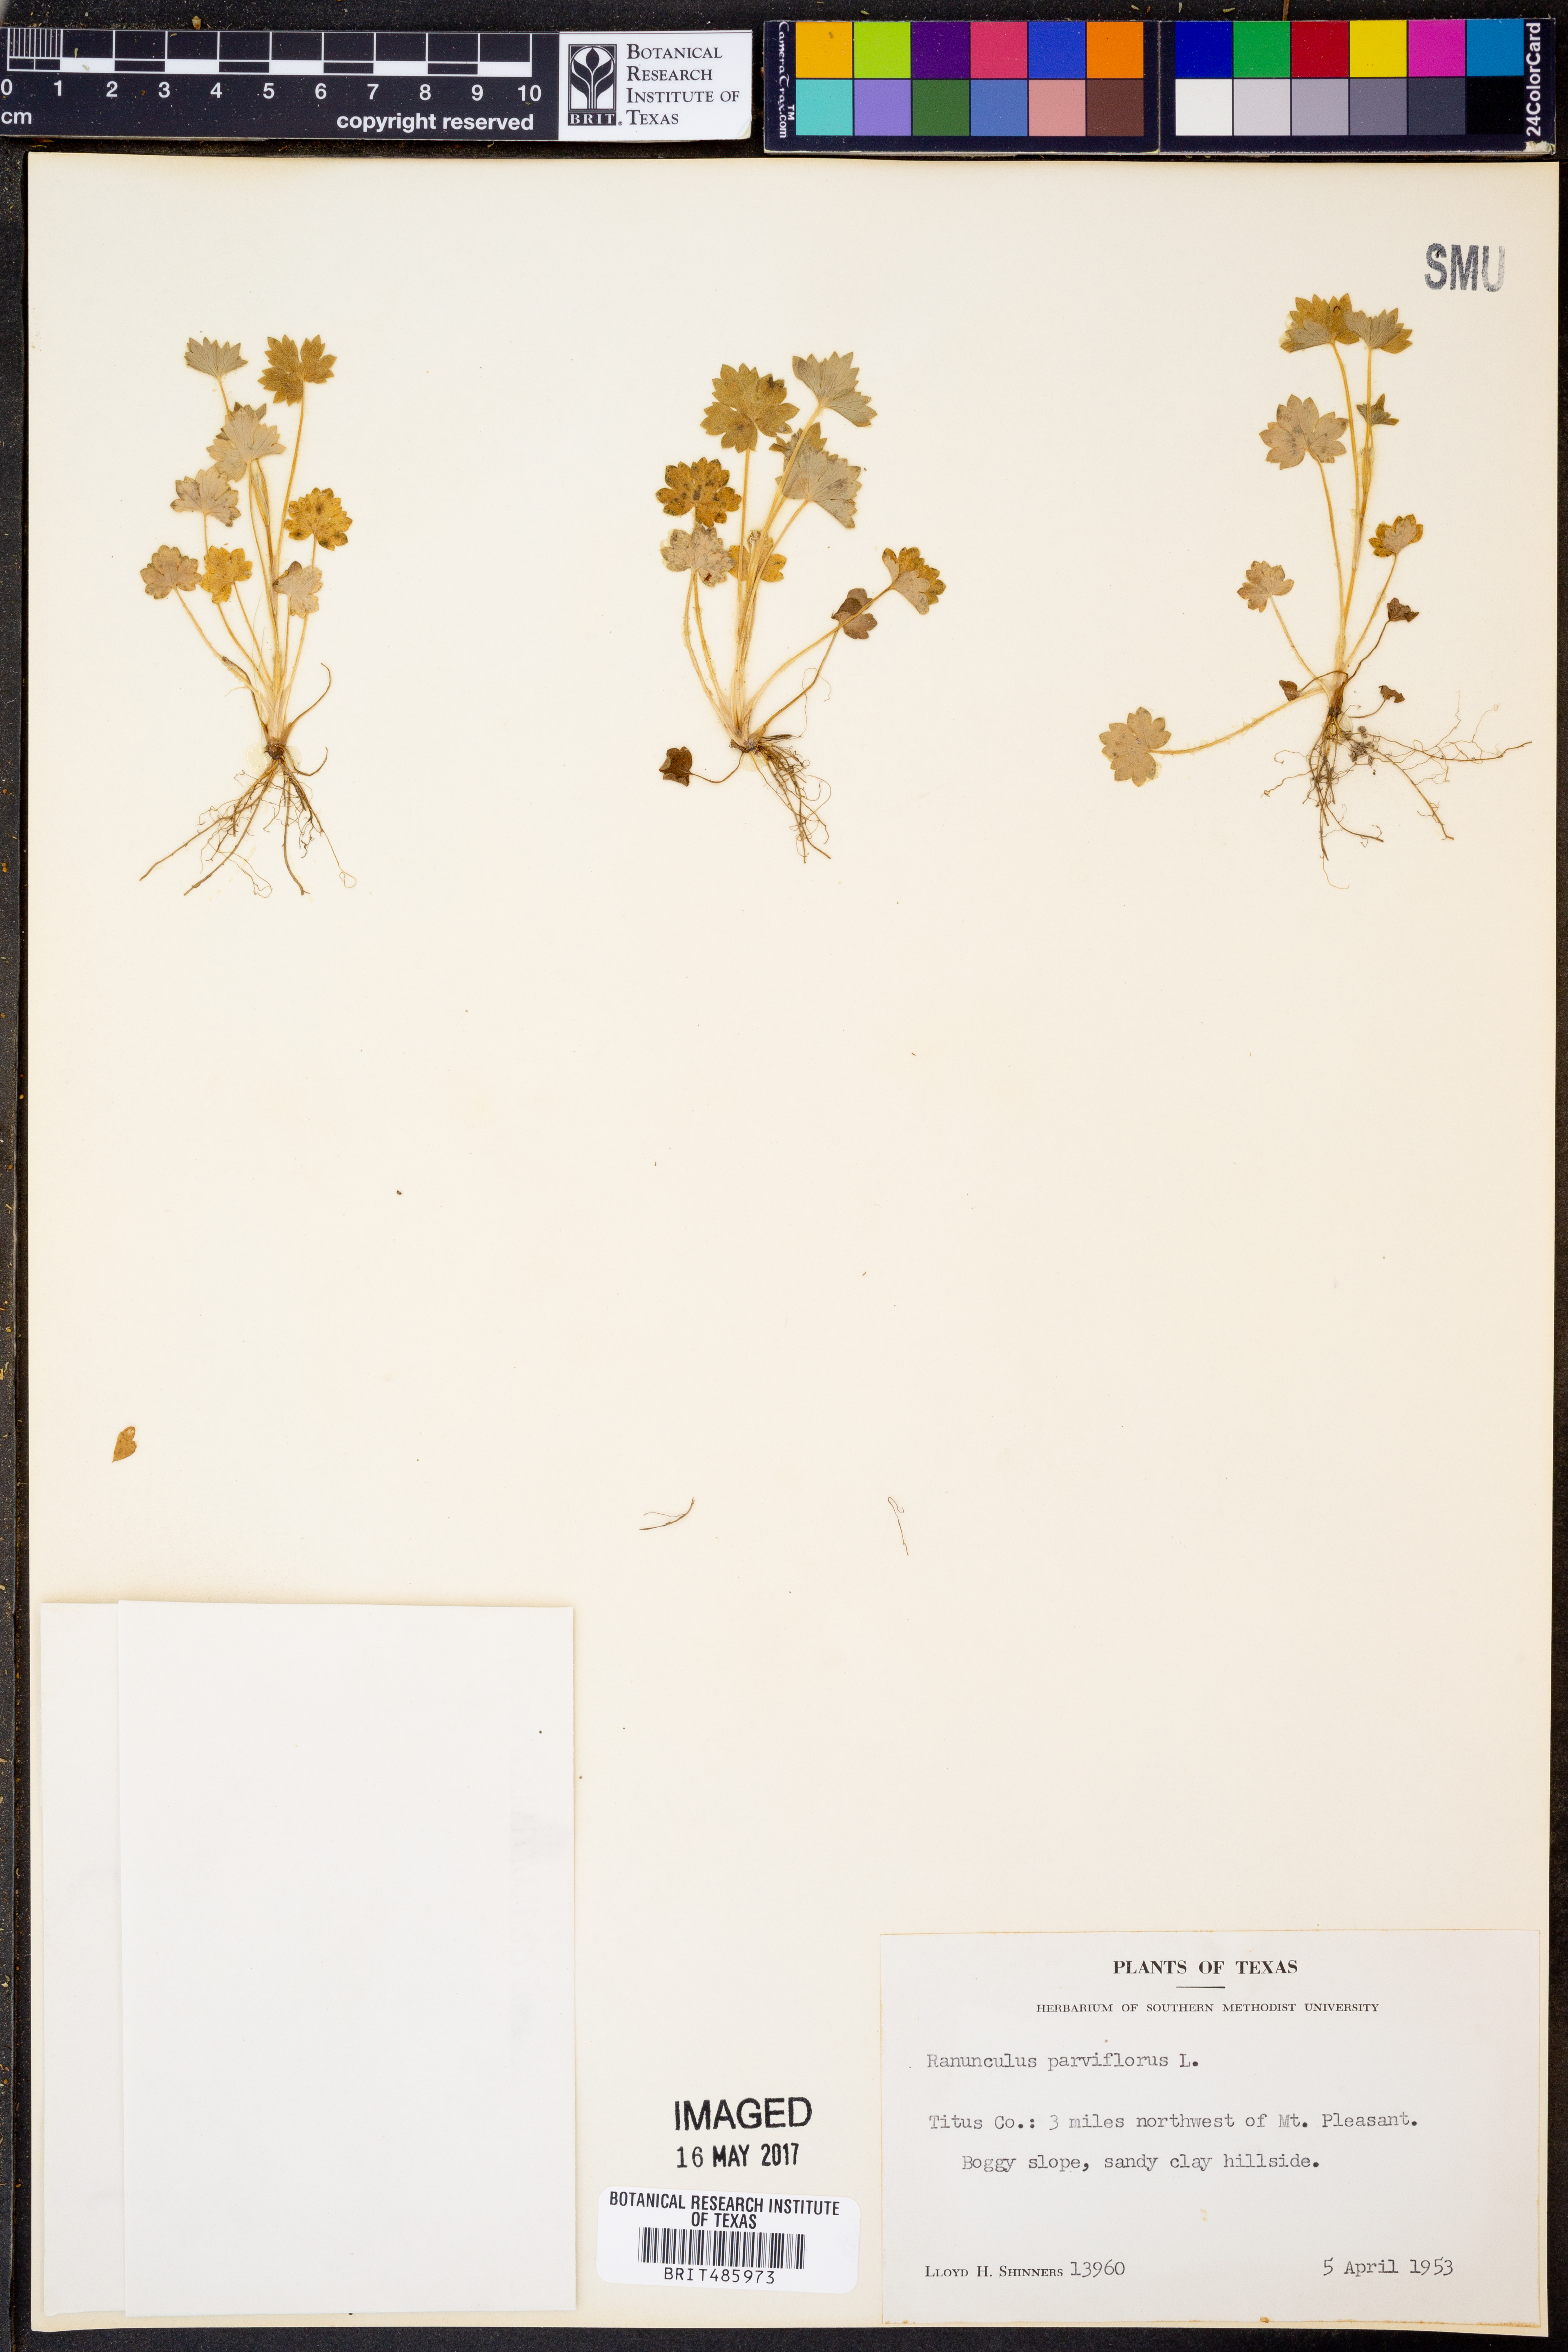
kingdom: Plantae
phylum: Tracheophyta
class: Magnoliopsida
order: Ranunculales
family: Ranunculaceae
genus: Ranunculus
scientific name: Ranunculus parviflorus
